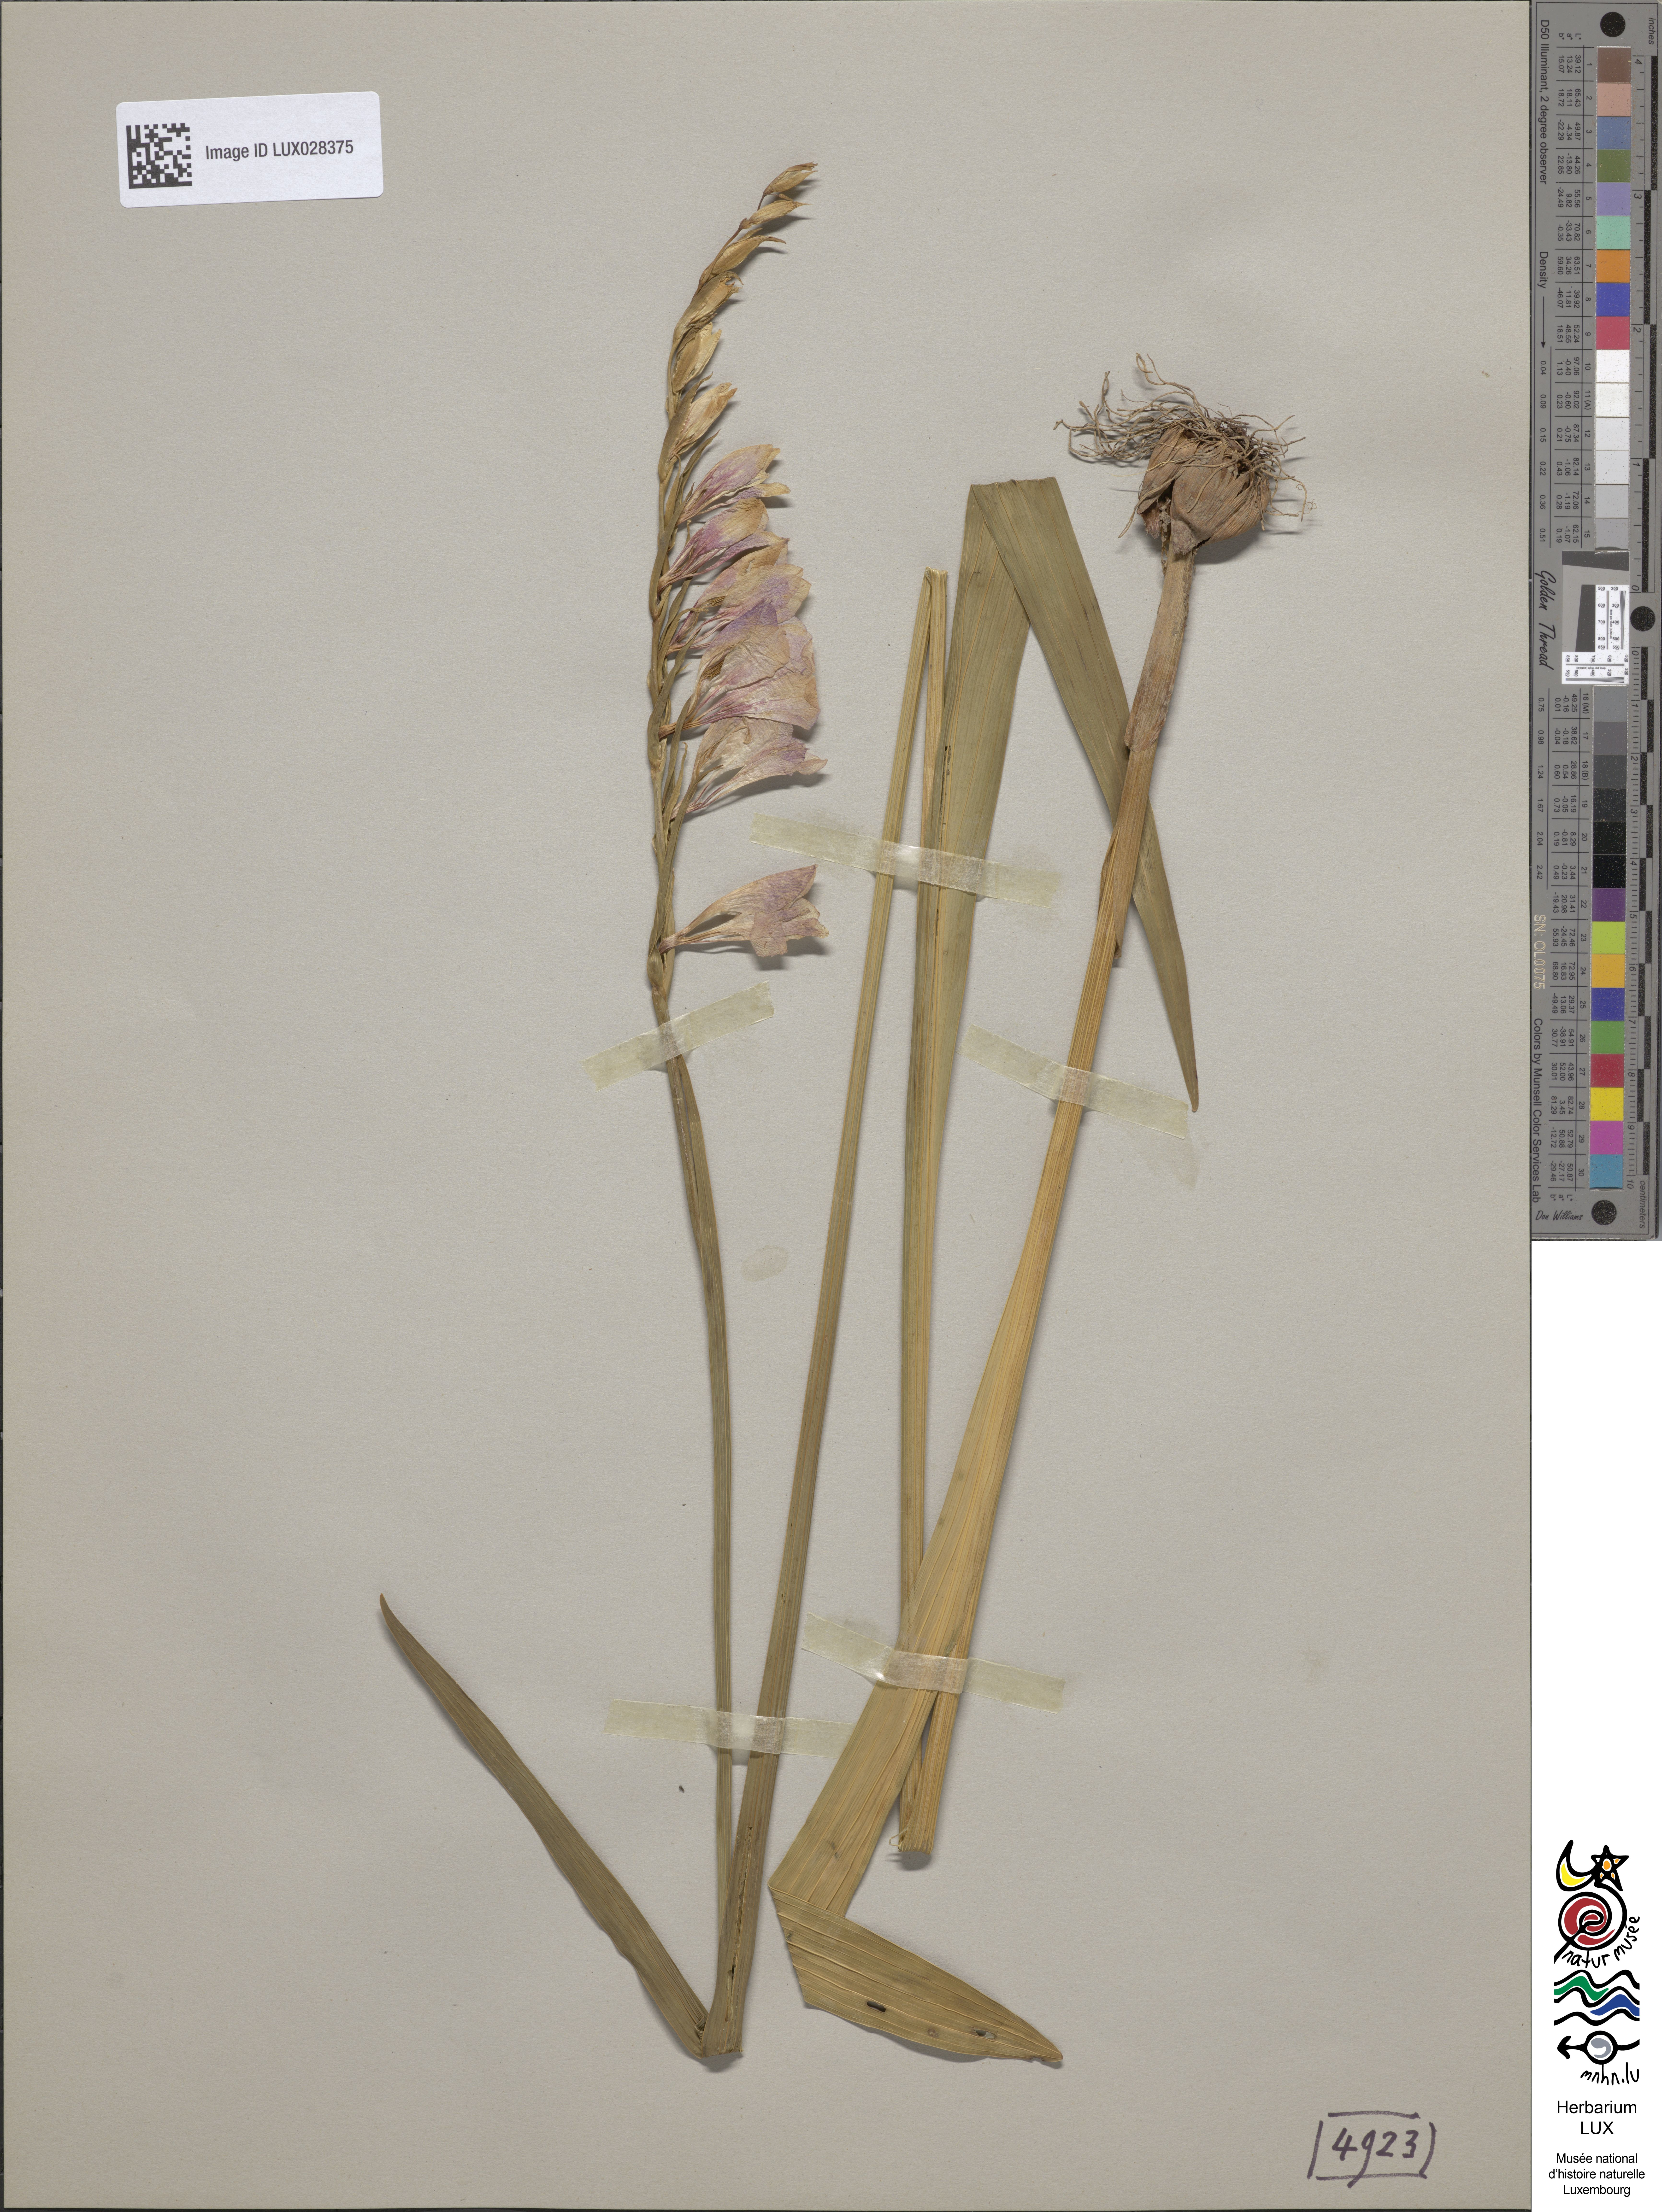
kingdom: Plantae
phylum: Tracheophyta
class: Liliopsida
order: Asparagales
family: Iridaceae
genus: Gladiolus
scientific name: Gladiolus imbricatus
